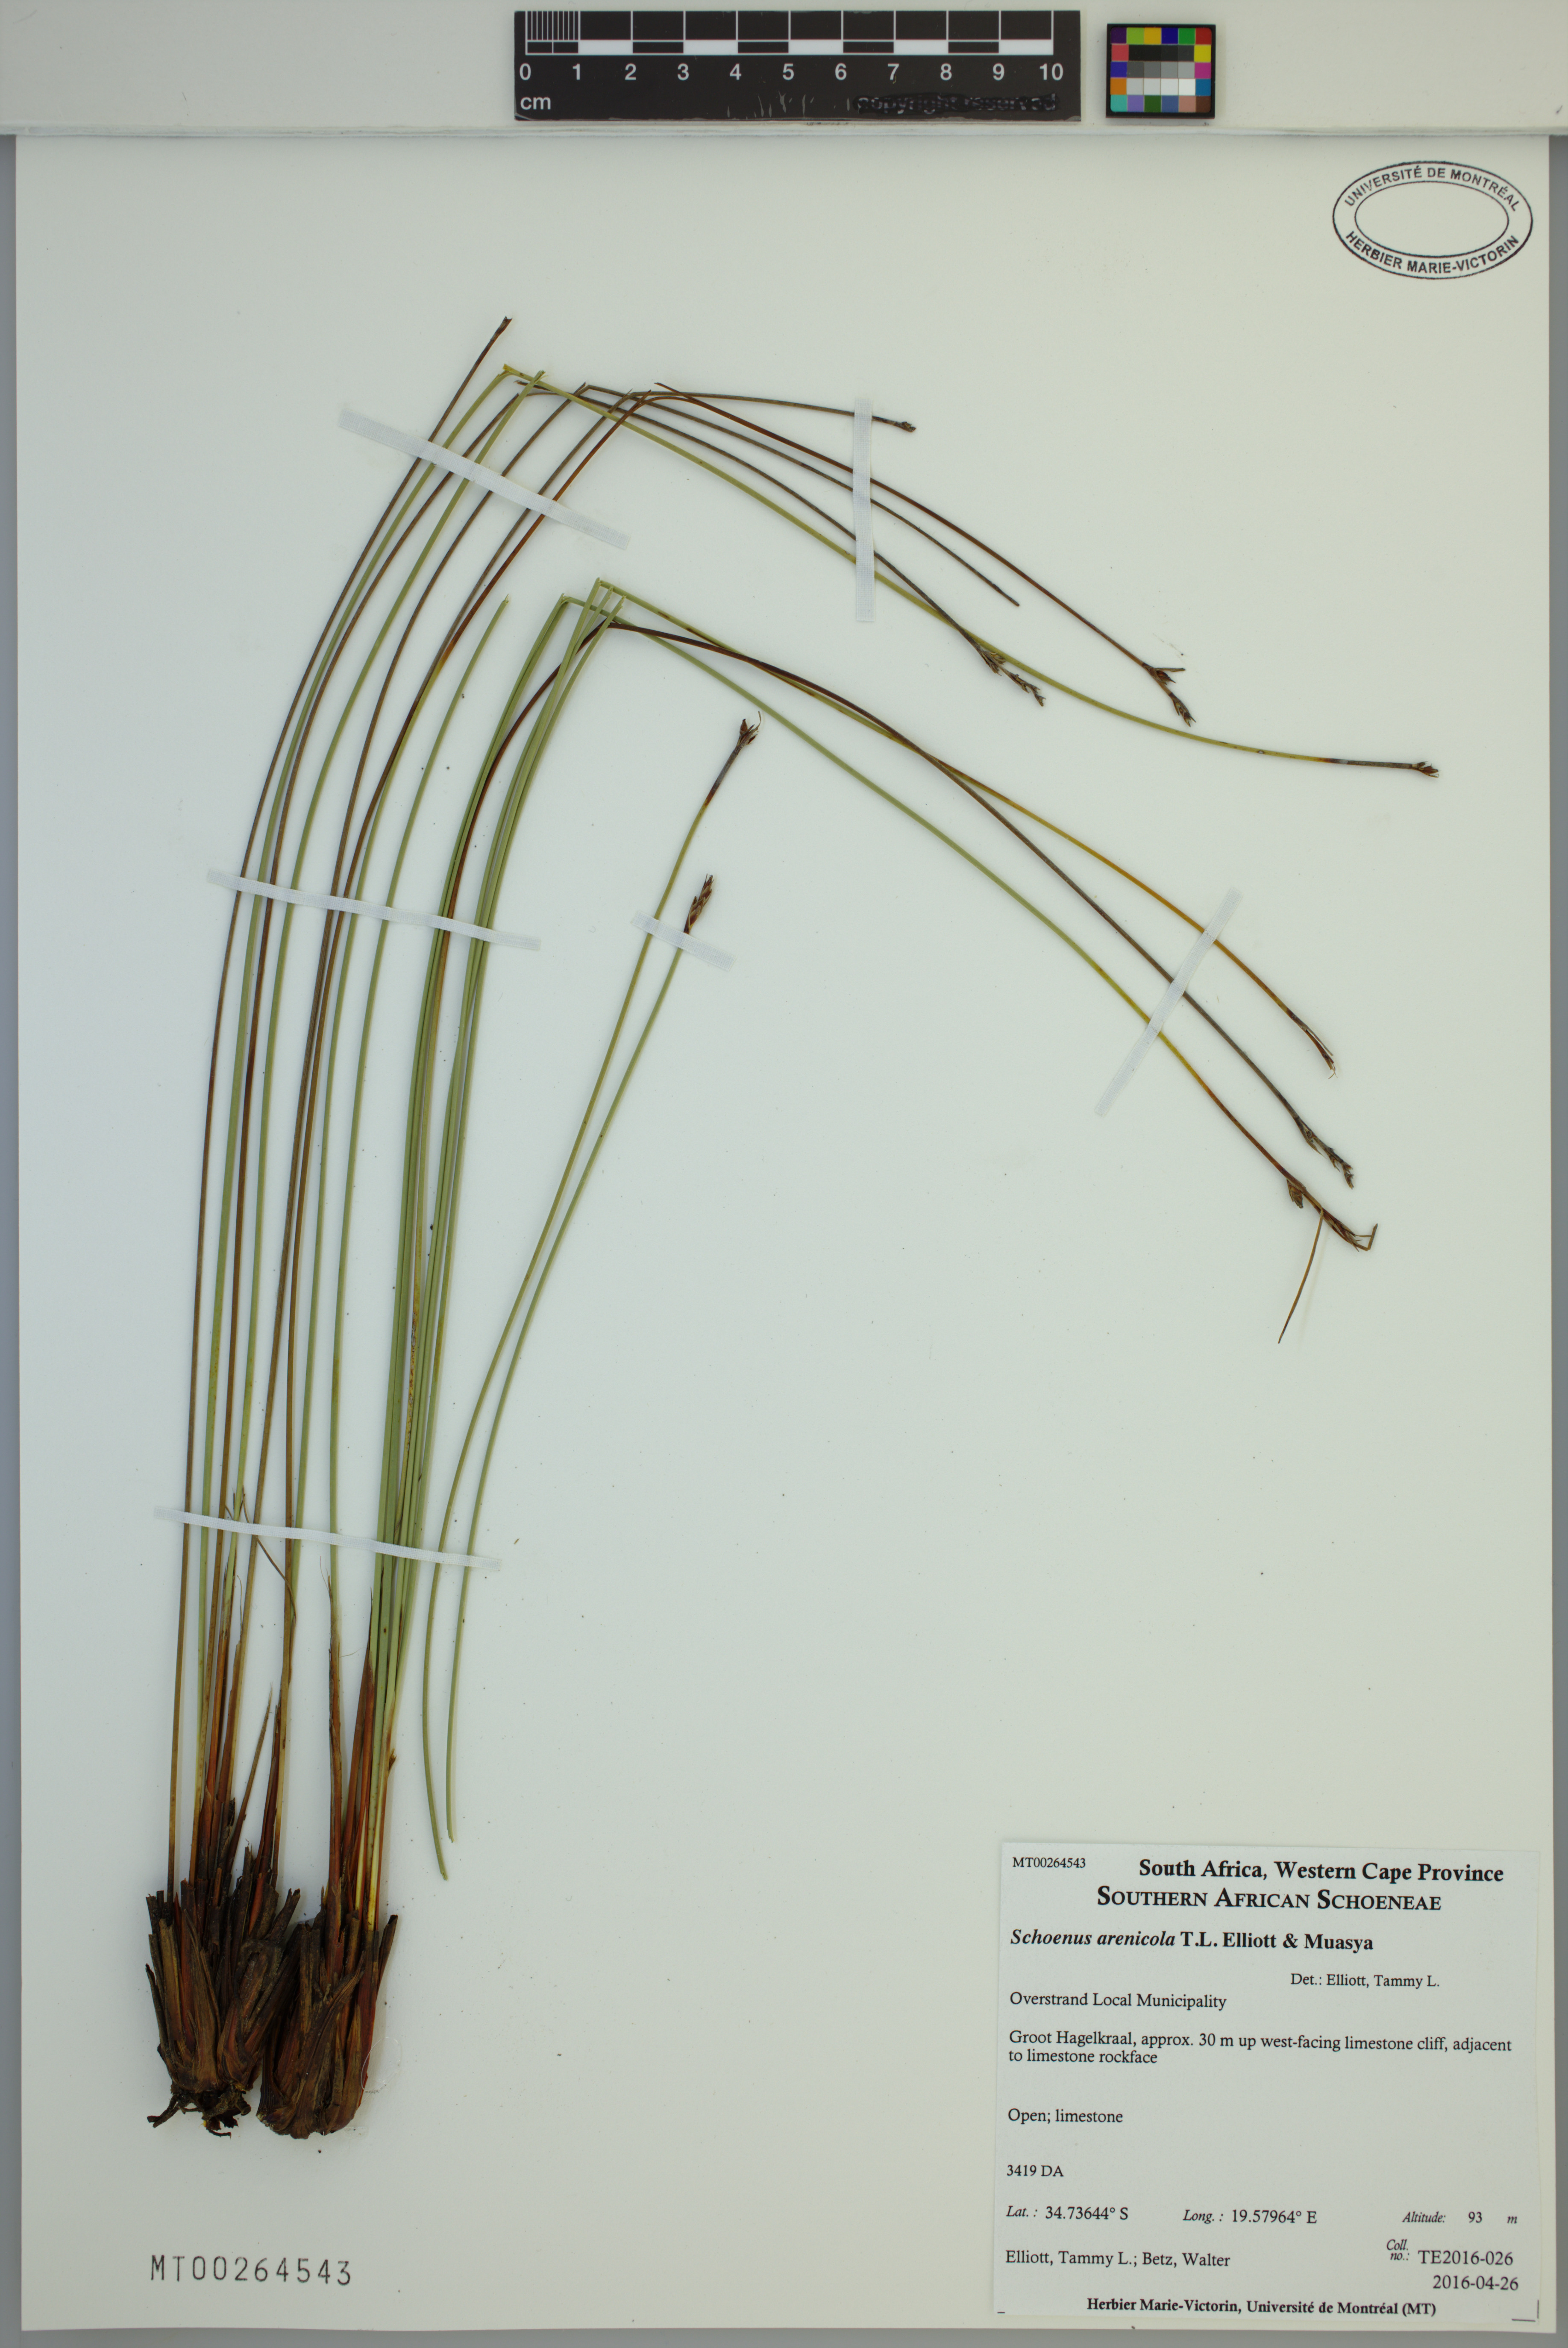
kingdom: Plantae
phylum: Tracheophyta
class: Liliopsida
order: Poales
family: Cyperaceae
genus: Schoenus
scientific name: Schoenus arenicola
